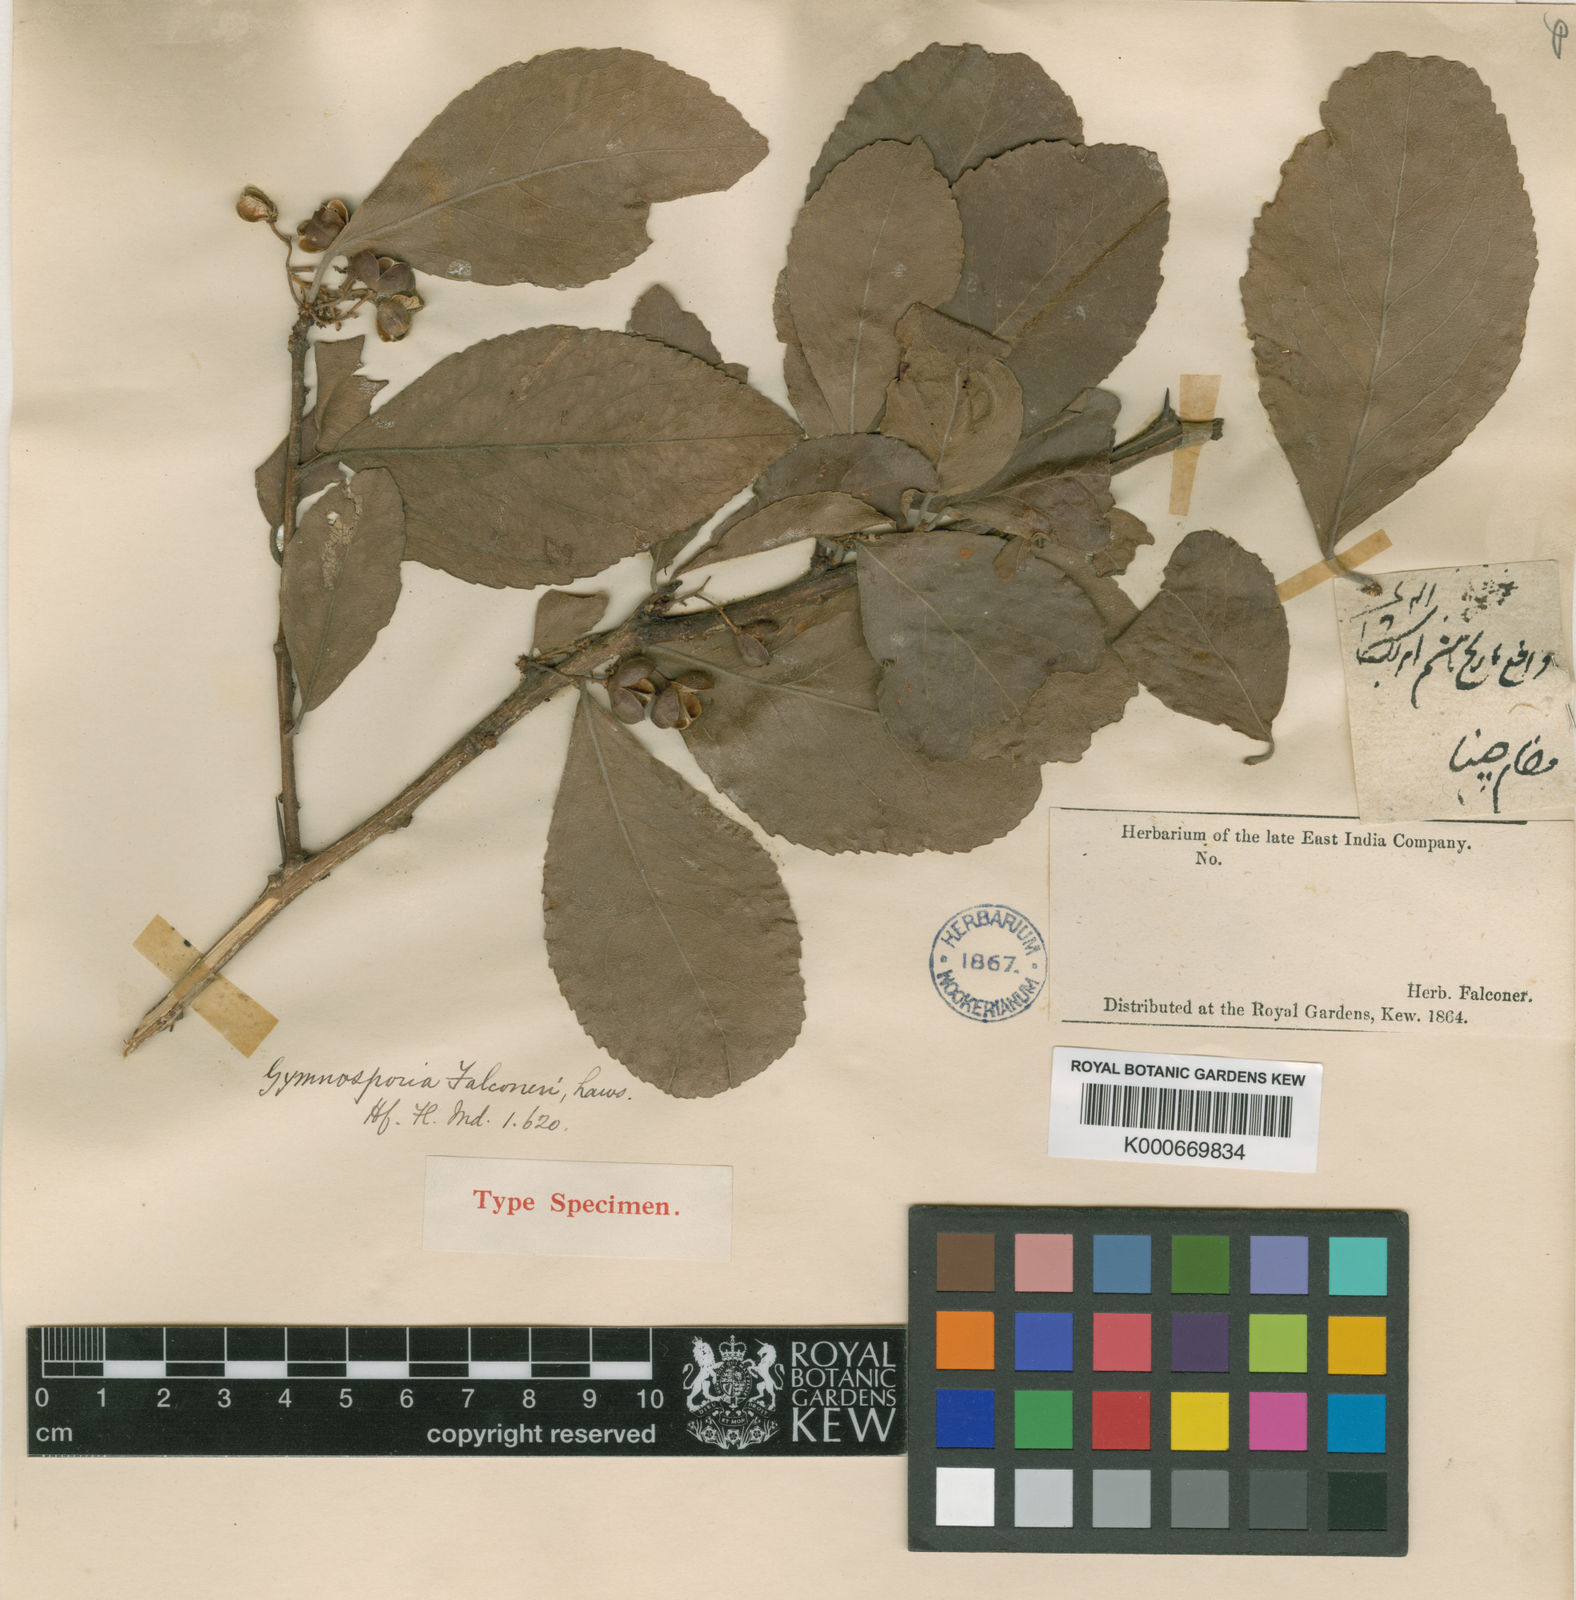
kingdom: Plantae
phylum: Tracheophyta
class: Magnoliopsida
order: Celastrales
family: Celastraceae
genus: Gymnosporia
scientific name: Gymnosporia falconeri
